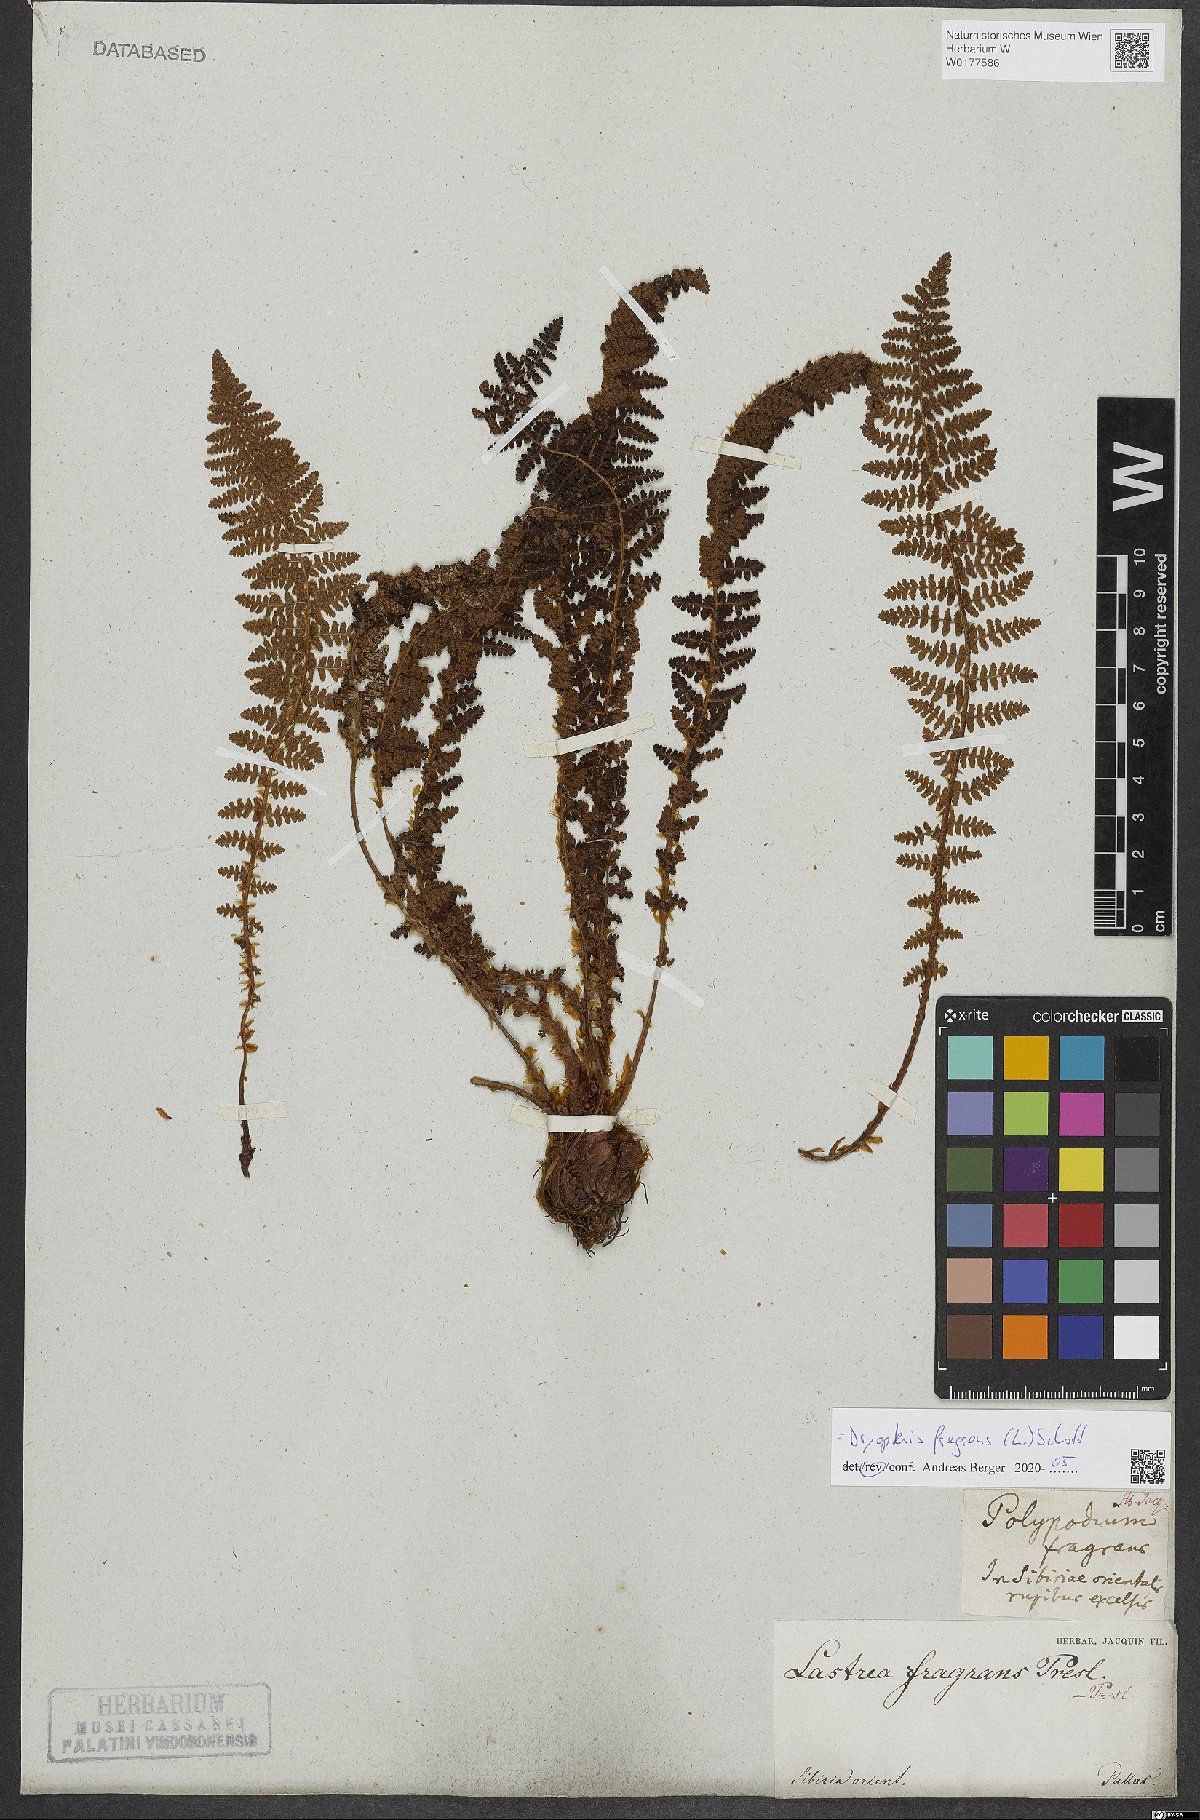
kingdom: Plantae
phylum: Tracheophyta
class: Polypodiopsida
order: Polypodiales
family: Dryopteridaceae
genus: Dryopteris
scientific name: Dryopteris fragrans
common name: Fragrant wood fern
